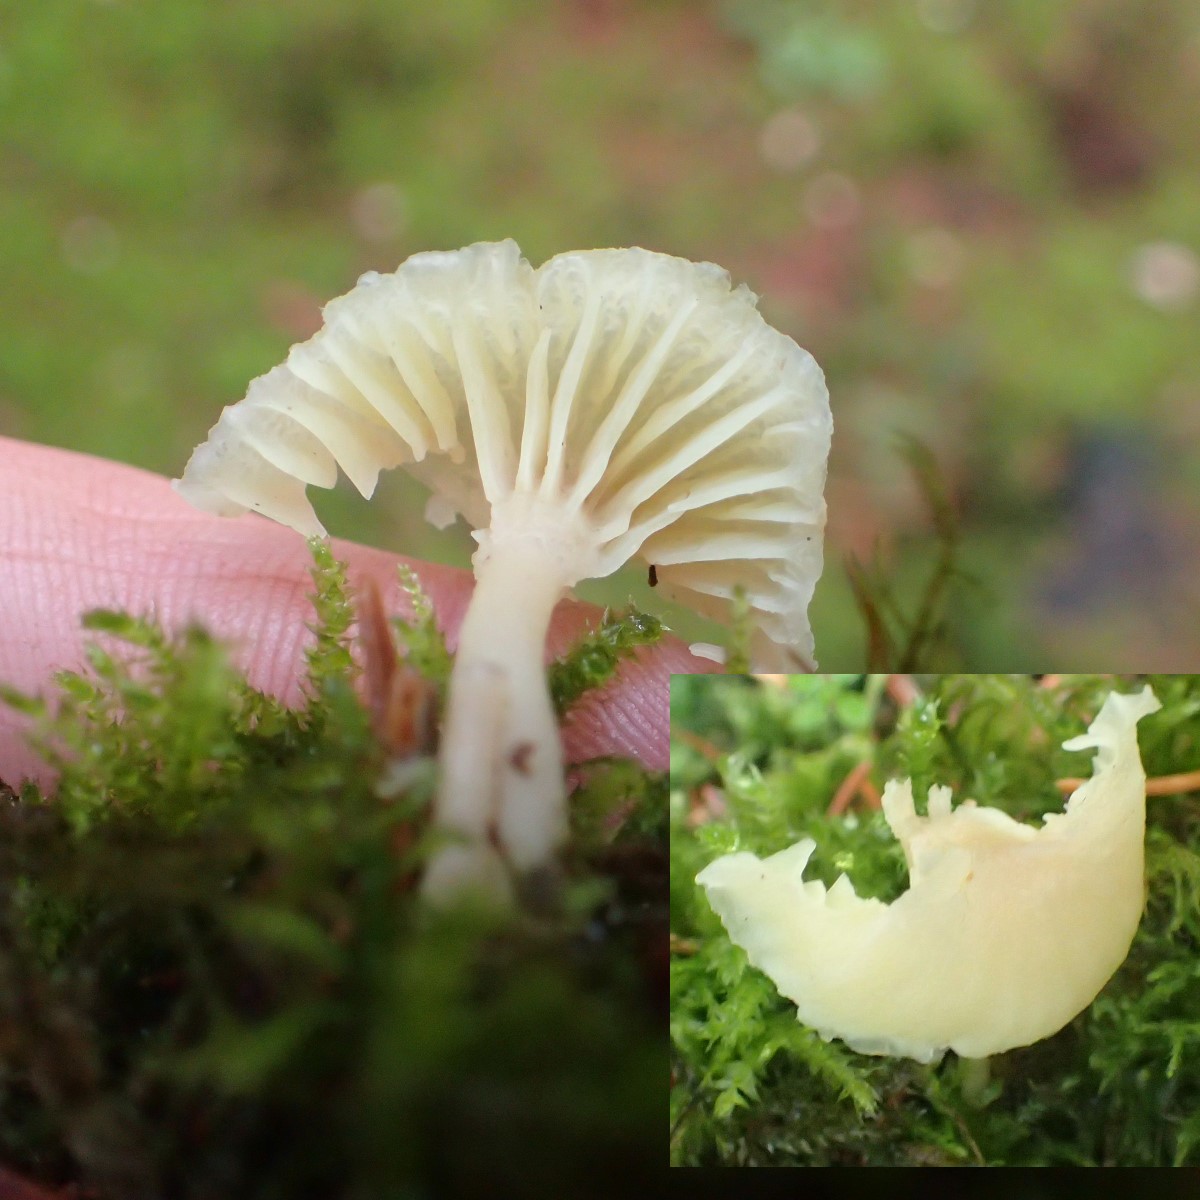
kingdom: Fungi
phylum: Basidiomycota
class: Agaricomycetes
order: Agaricales
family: Hygrophoraceae
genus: Chrysomphalina
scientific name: Chrysomphalina grossula
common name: stød-gyldenblad
